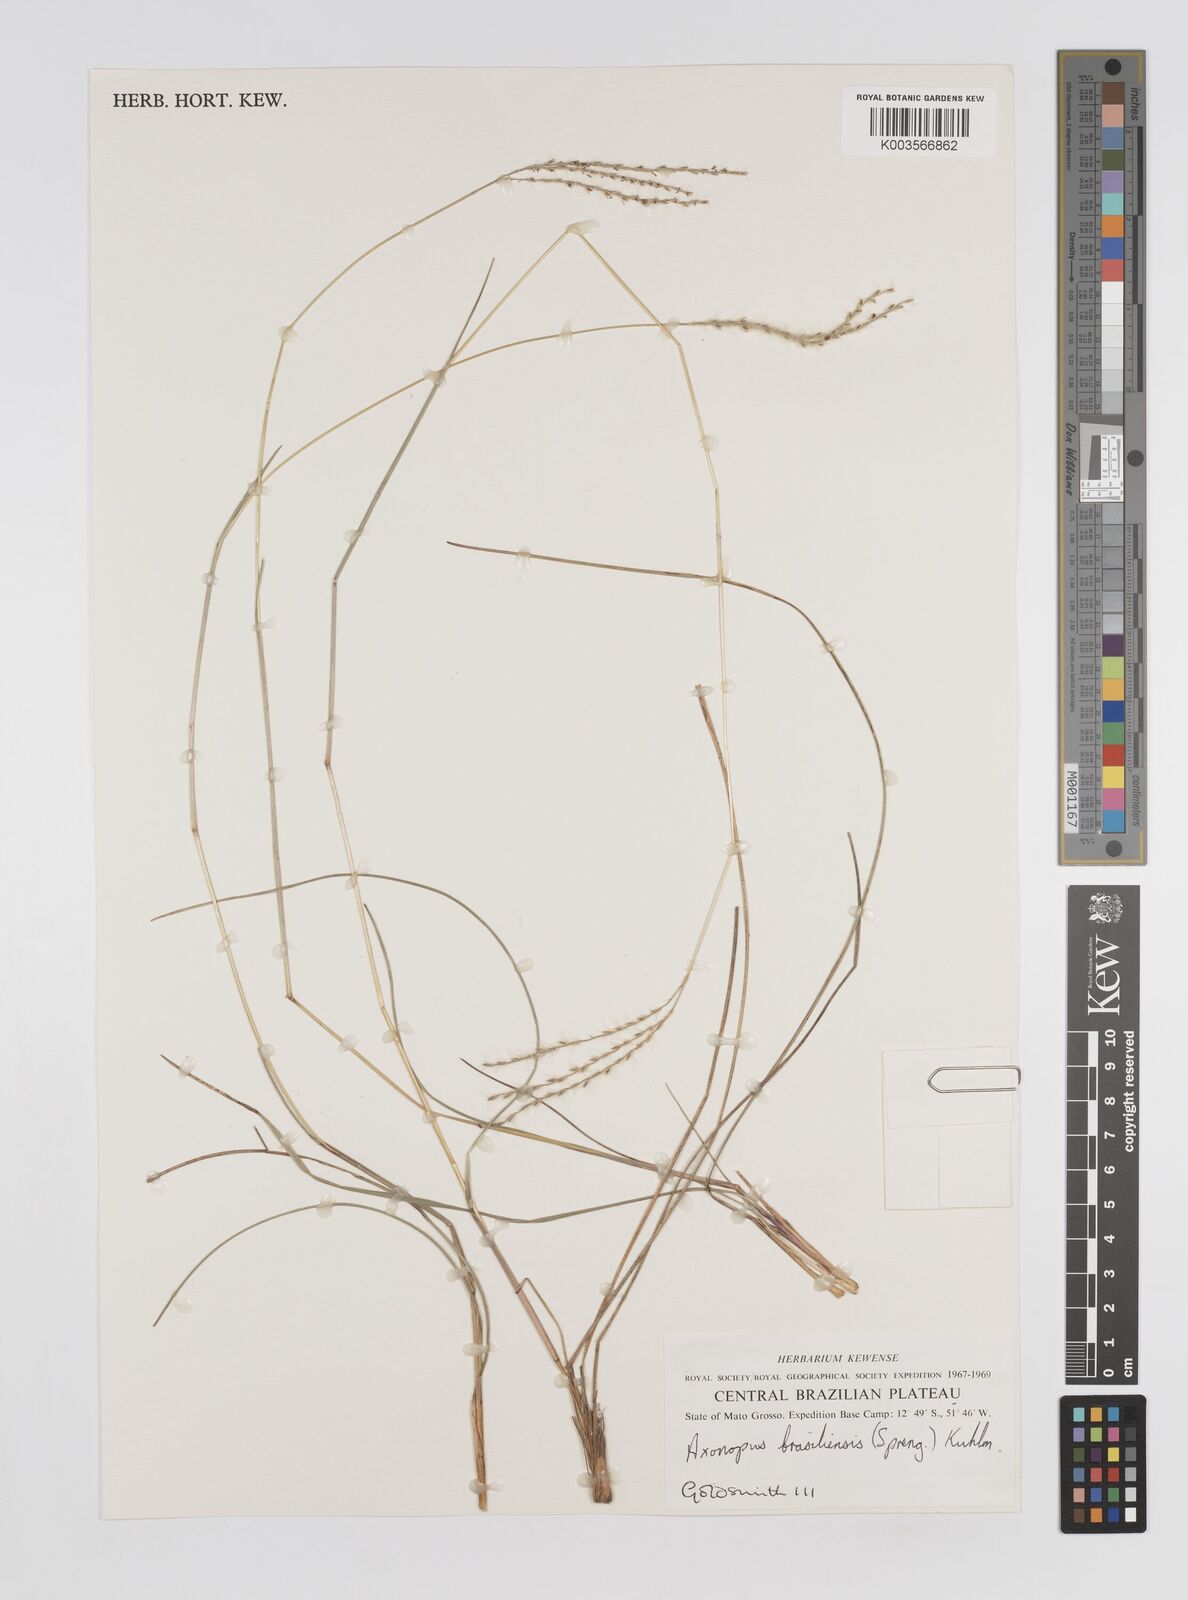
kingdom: Plantae
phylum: Tracheophyta
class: Liliopsida
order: Poales
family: Poaceae
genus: Axonopus
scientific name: Axonopus brasiliensis
